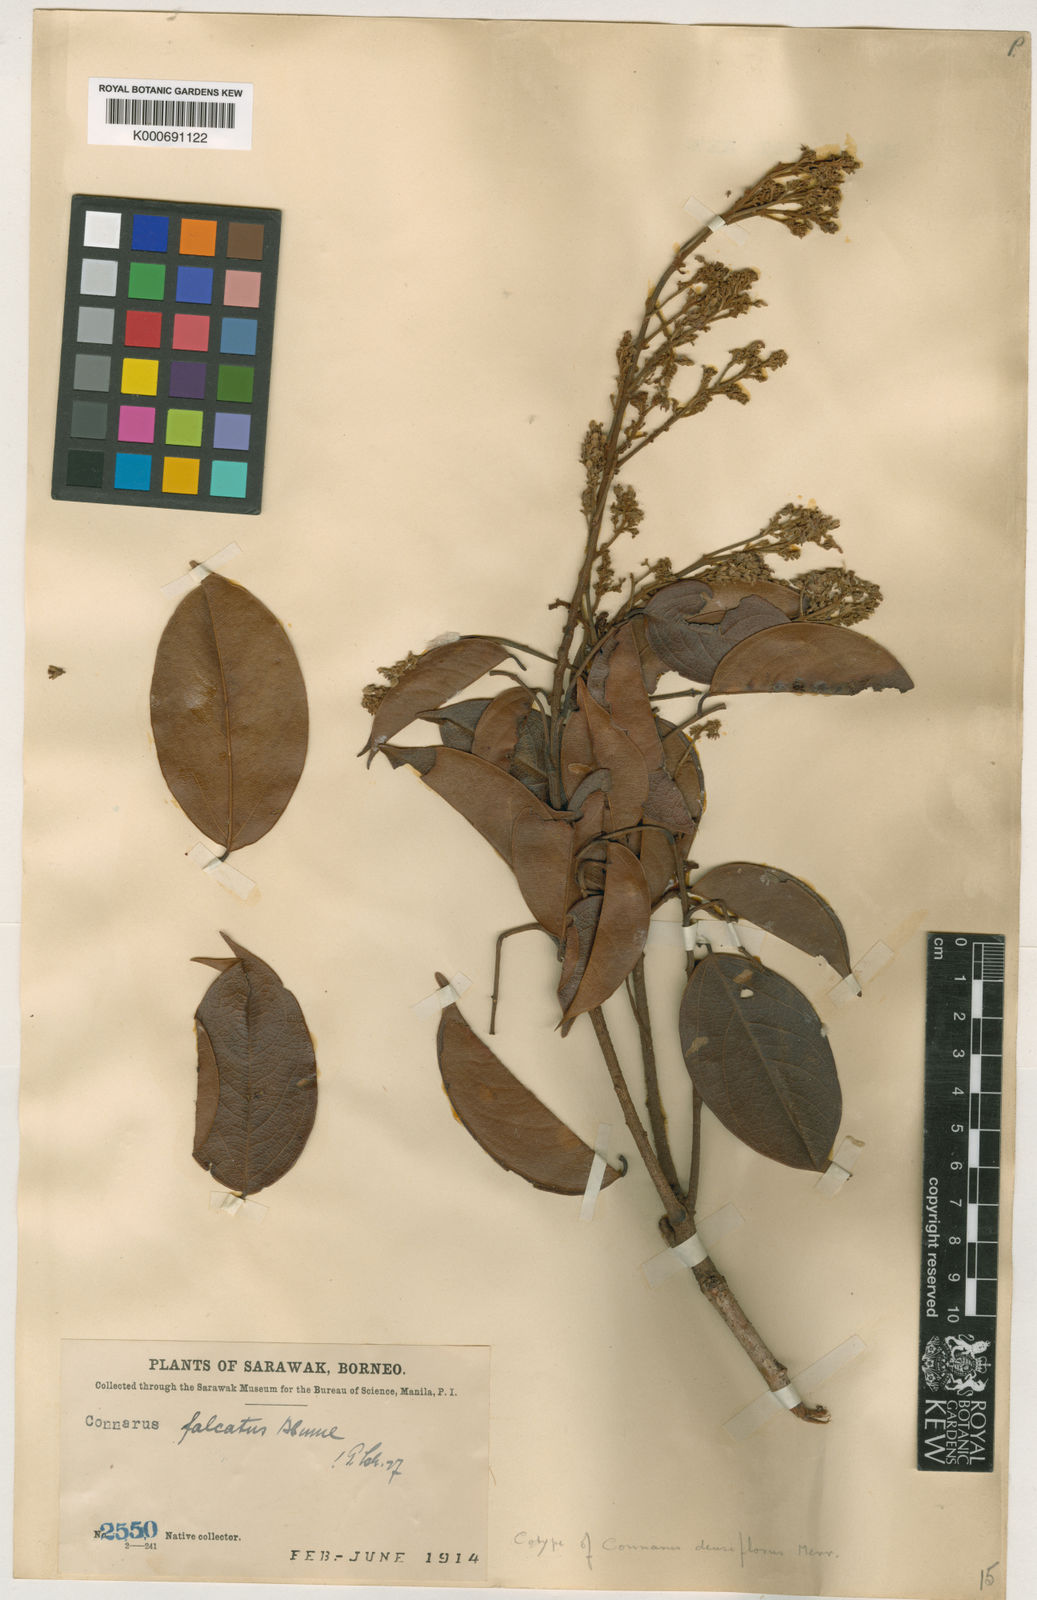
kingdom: Plantae
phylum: Tracheophyta
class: Magnoliopsida
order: Oxalidales
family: Connaraceae
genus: Connarus
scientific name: Connarus semidecandrus
